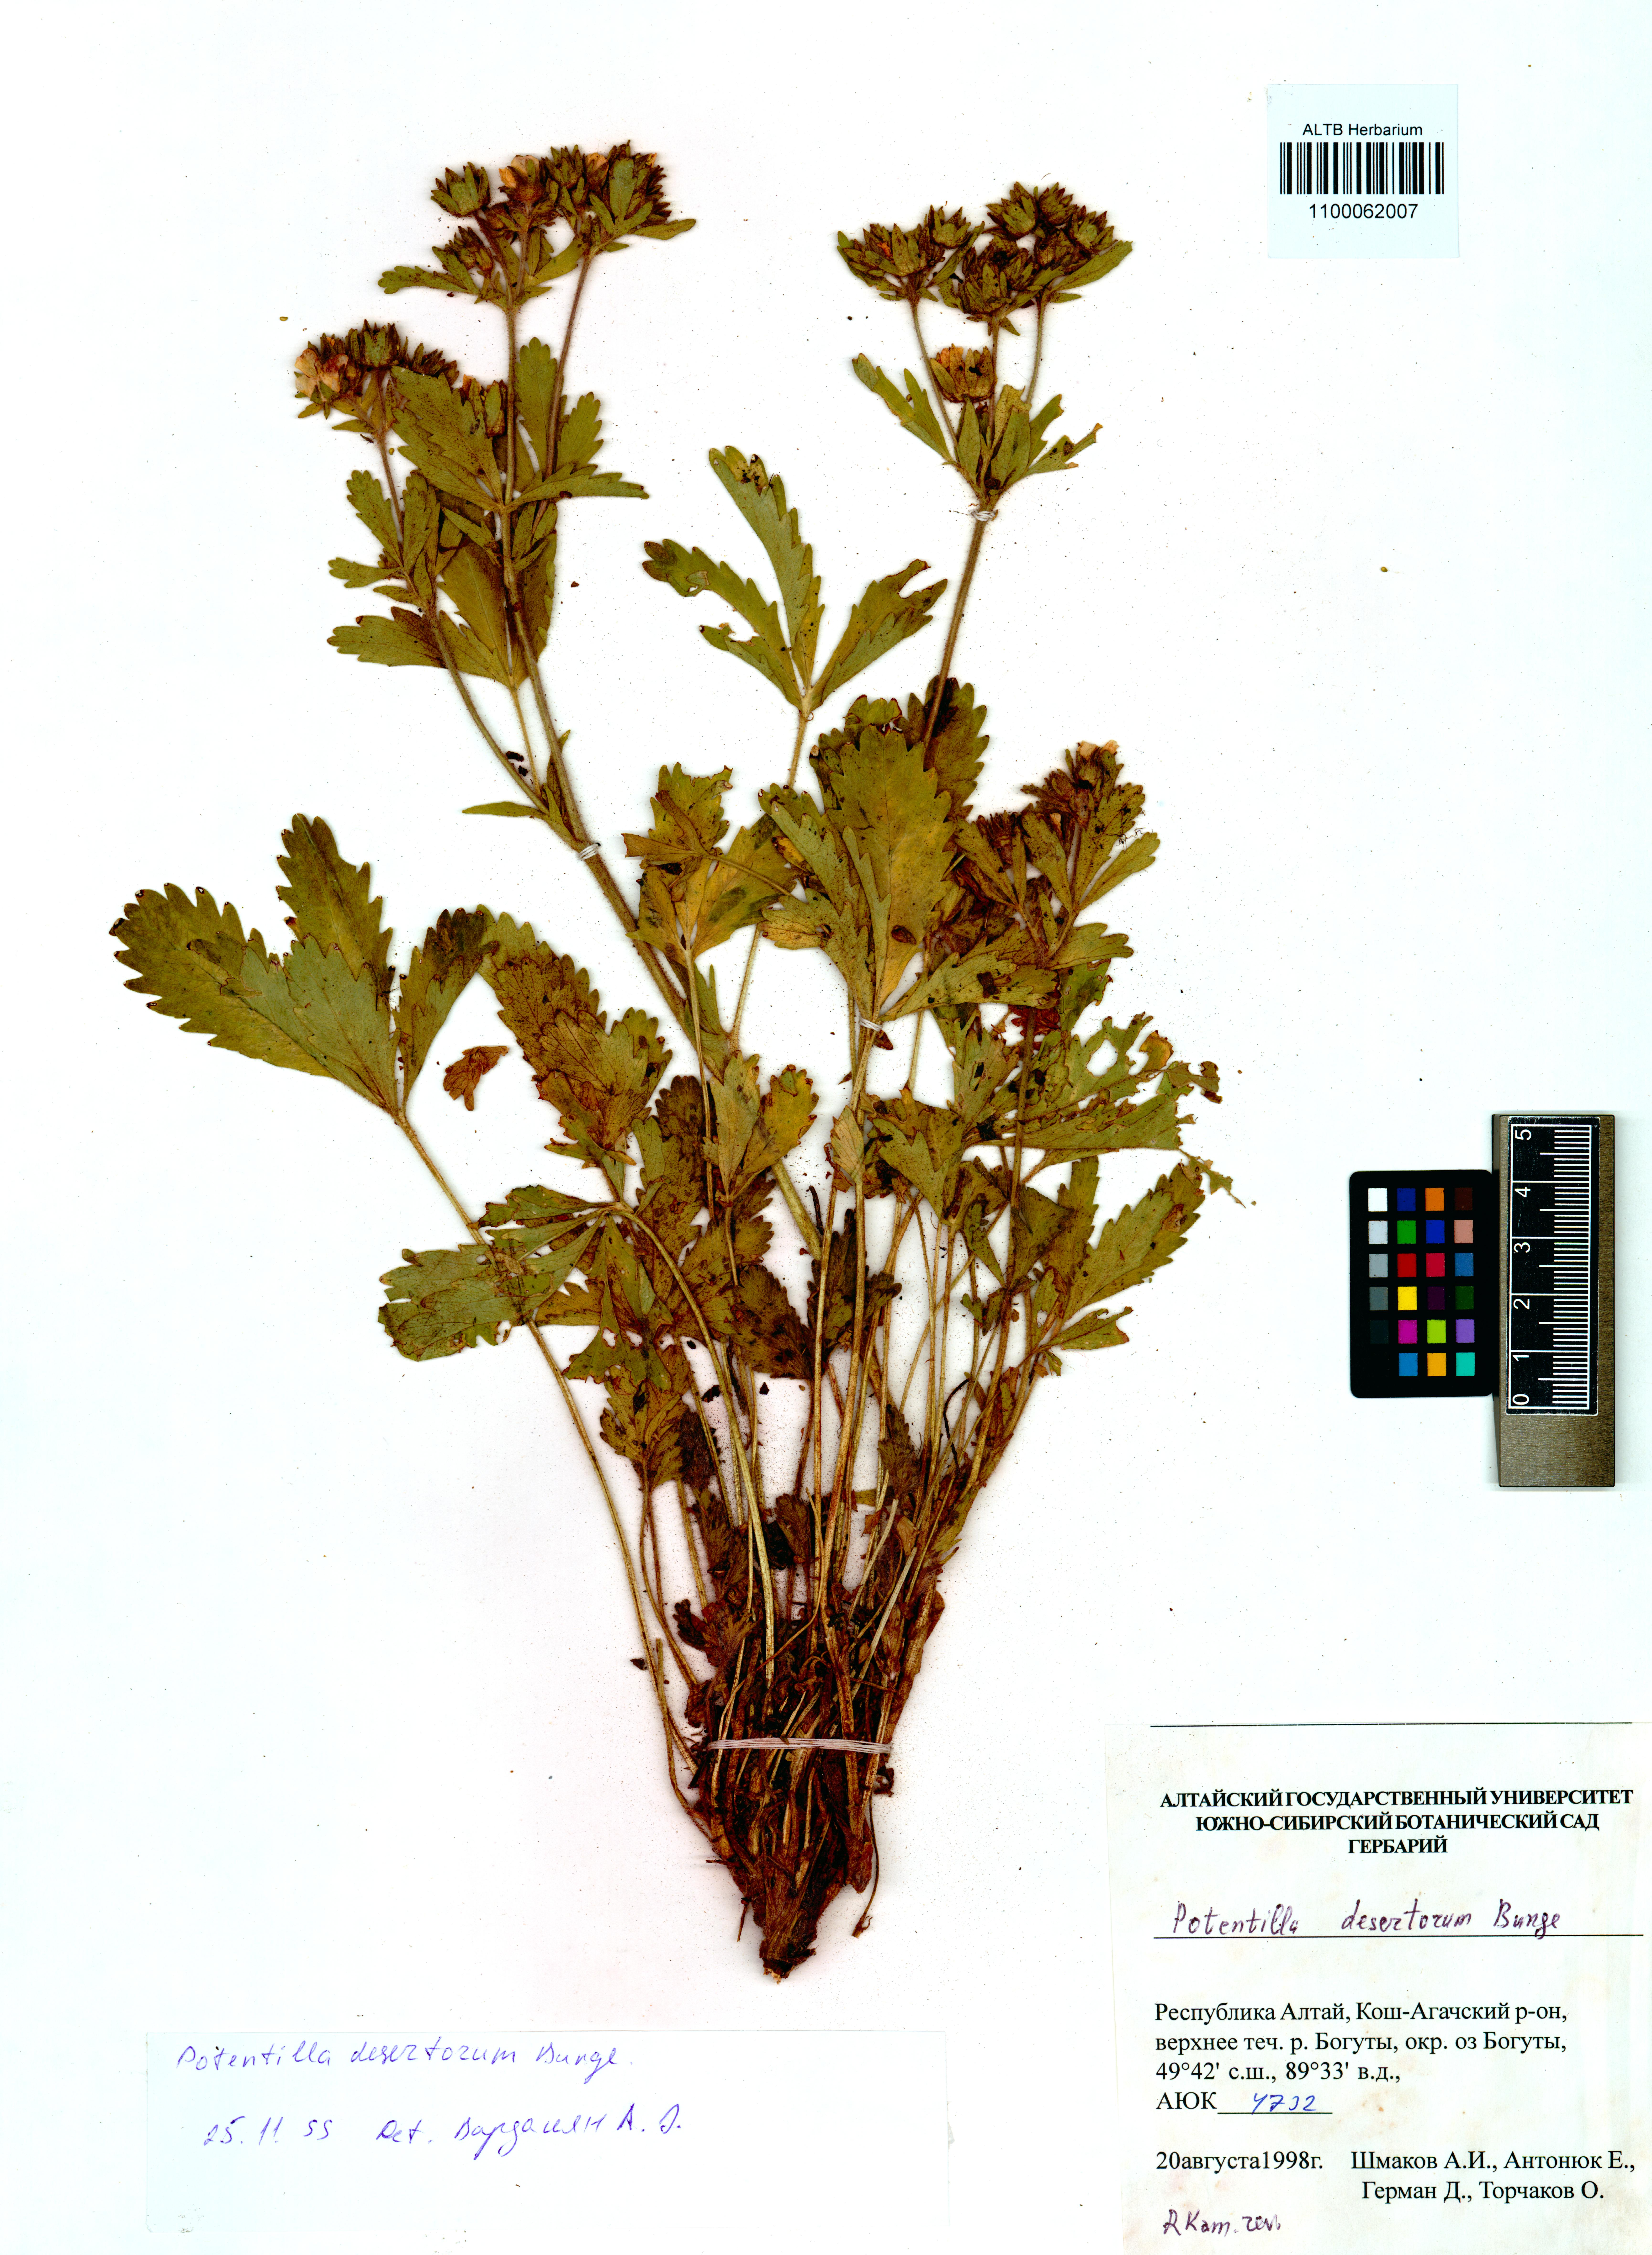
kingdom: Plantae
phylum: Tracheophyta
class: Magnoliopsida
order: Rosales
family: Rosaceae
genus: Potentilla
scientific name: Potentilla desertorum
